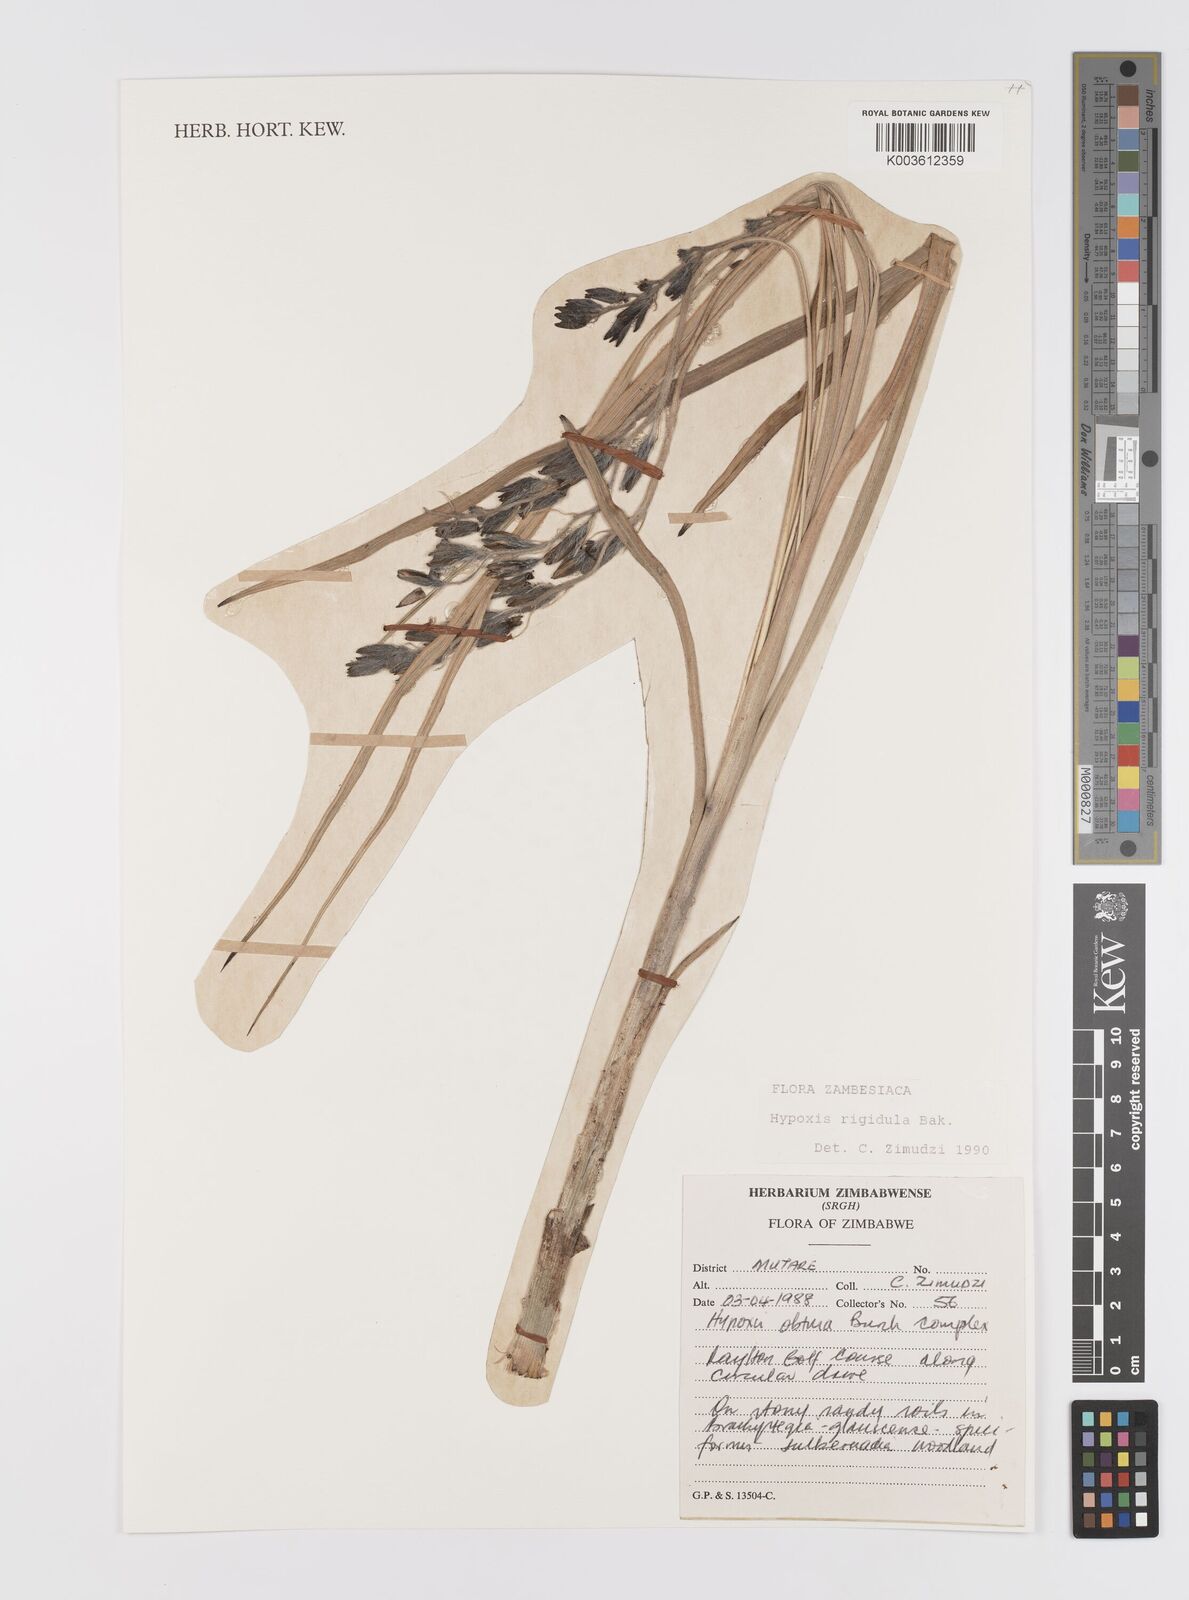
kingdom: Plantae
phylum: Tracheophyta
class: Liliopsida
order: Asparagales
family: Hypoxidaceae
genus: Hypoxis
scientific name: Hypoxis rigidula
